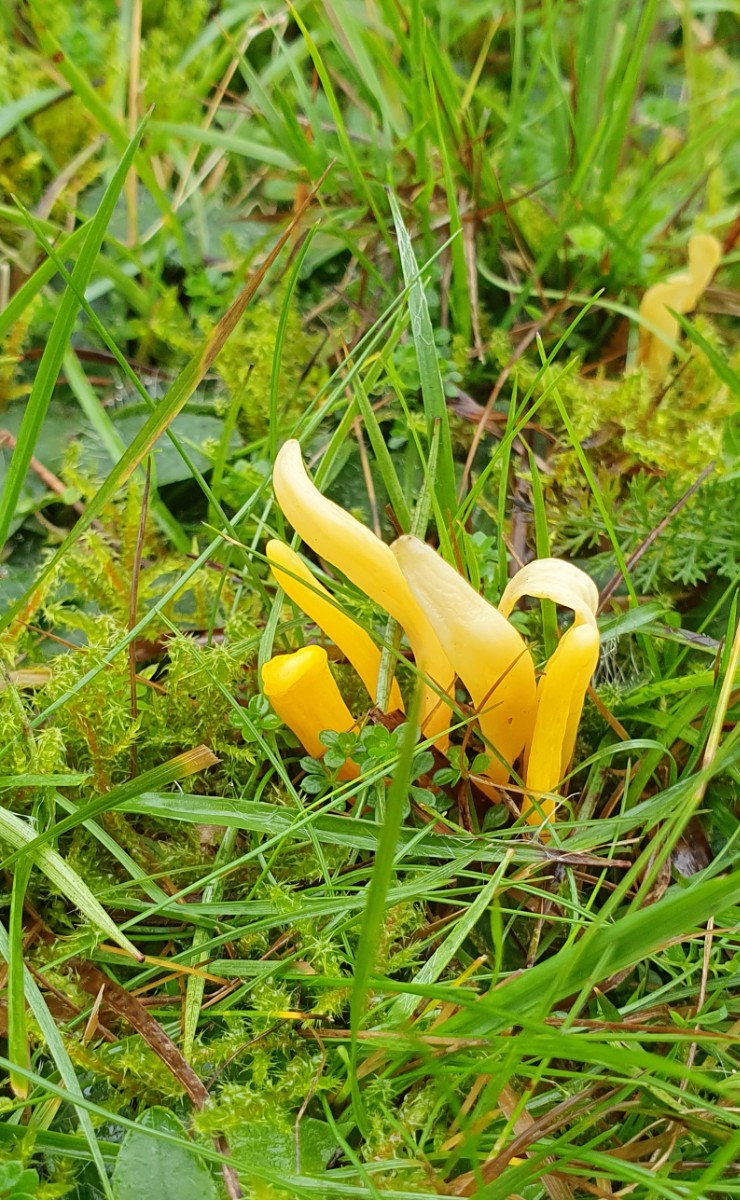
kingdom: Fungi
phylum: Basidiomycota
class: Agaricomycetes
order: Agaricales
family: Clavariaceae
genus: Clavulinopsis
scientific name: Clavulinopsis helvola
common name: orangegul køllesvamp
